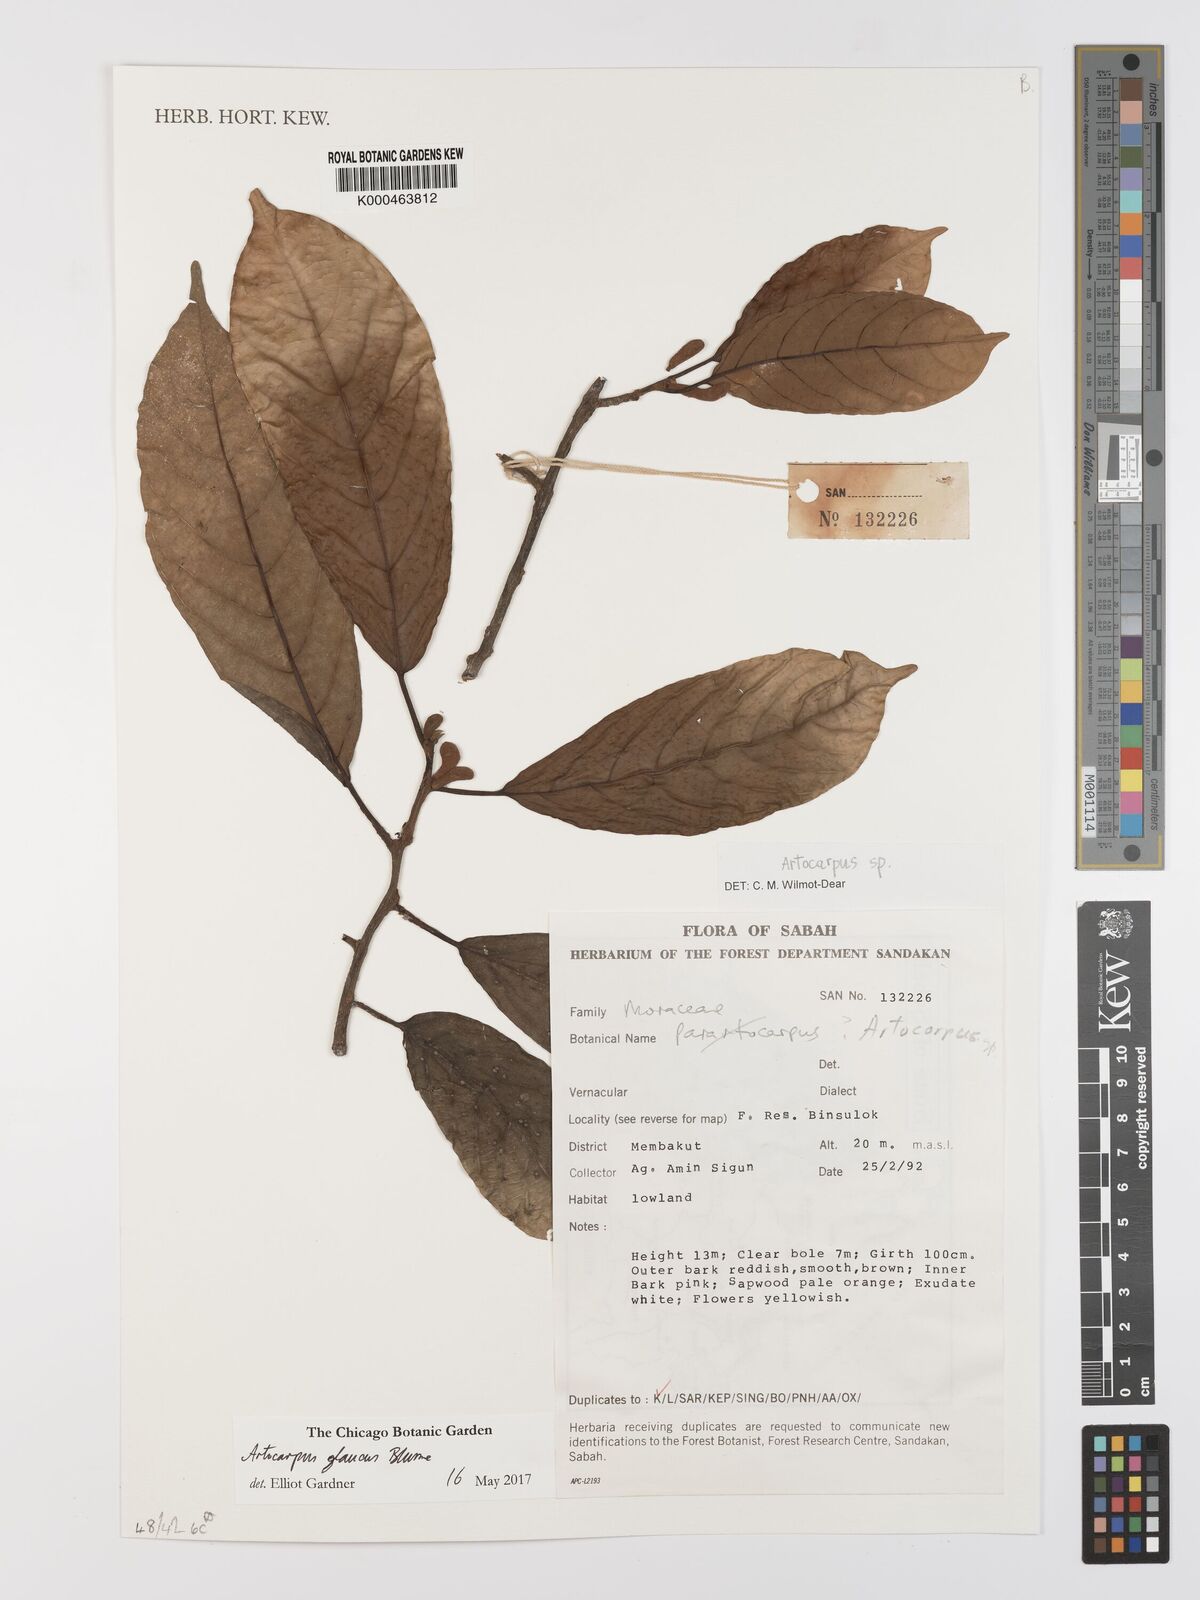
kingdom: Plantae
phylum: Tracheophyta
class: Magnoliopsida
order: Rosales
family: Moraceae
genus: Artocarpus
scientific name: Artocarpus
